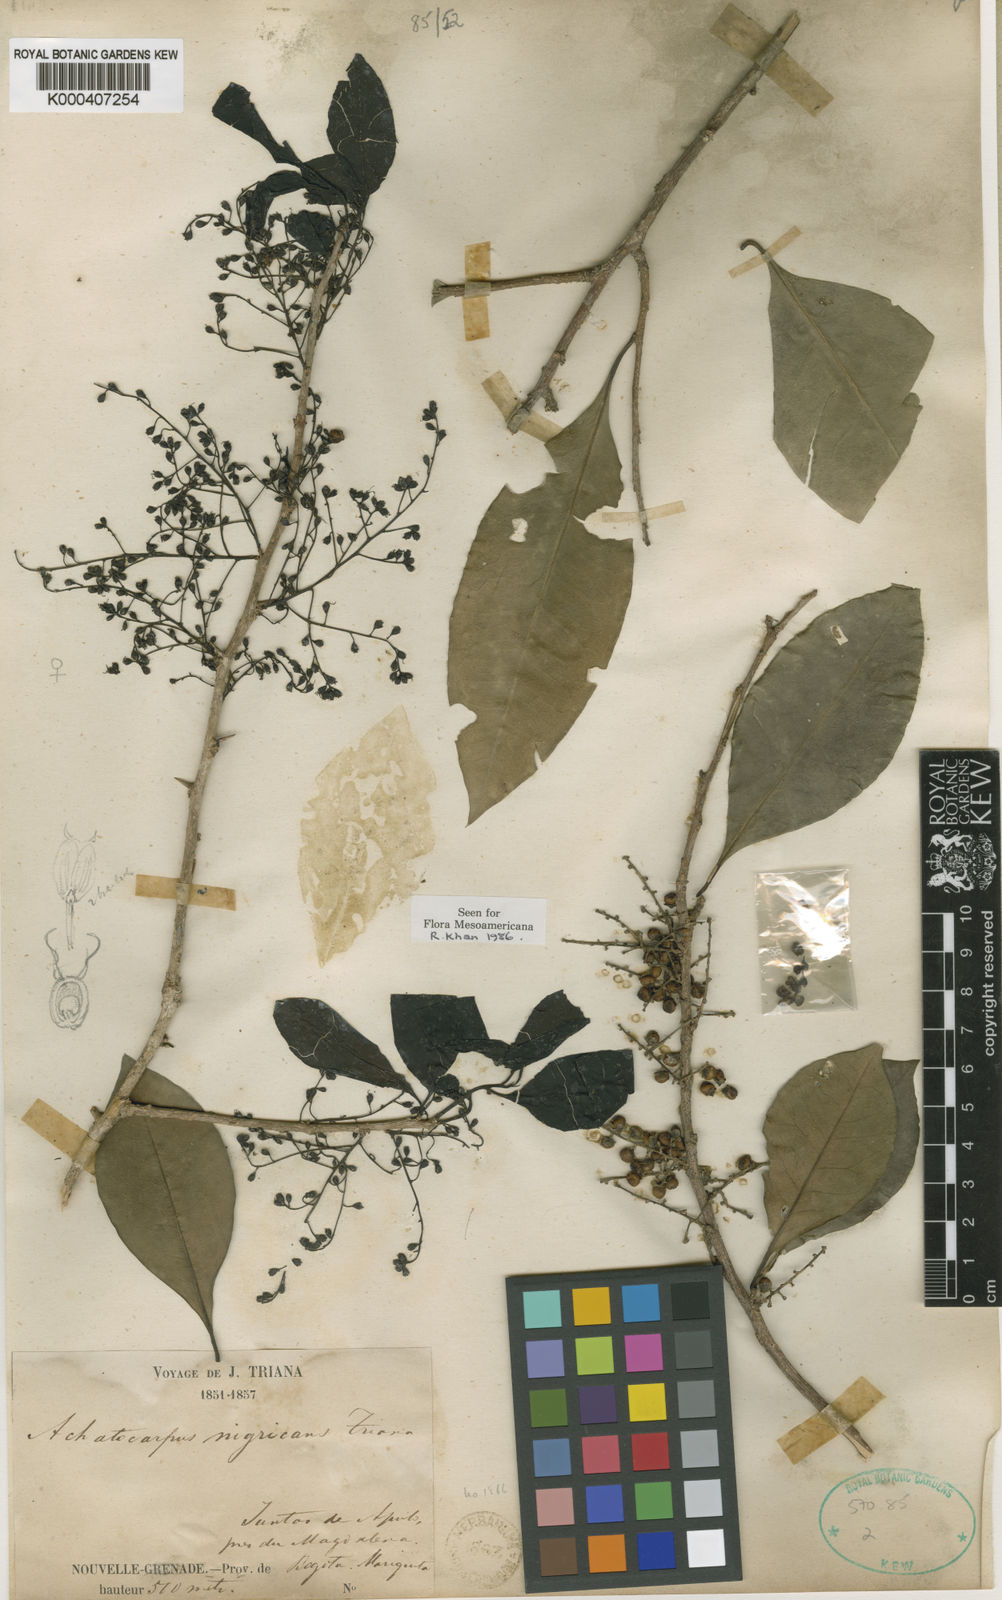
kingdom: Plantae
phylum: Tracheophyta
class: Magnoliopsida
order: Caryophyllales
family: Achatocarpaceae
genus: Achatocarpus
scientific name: Achatocarpus nigricans
